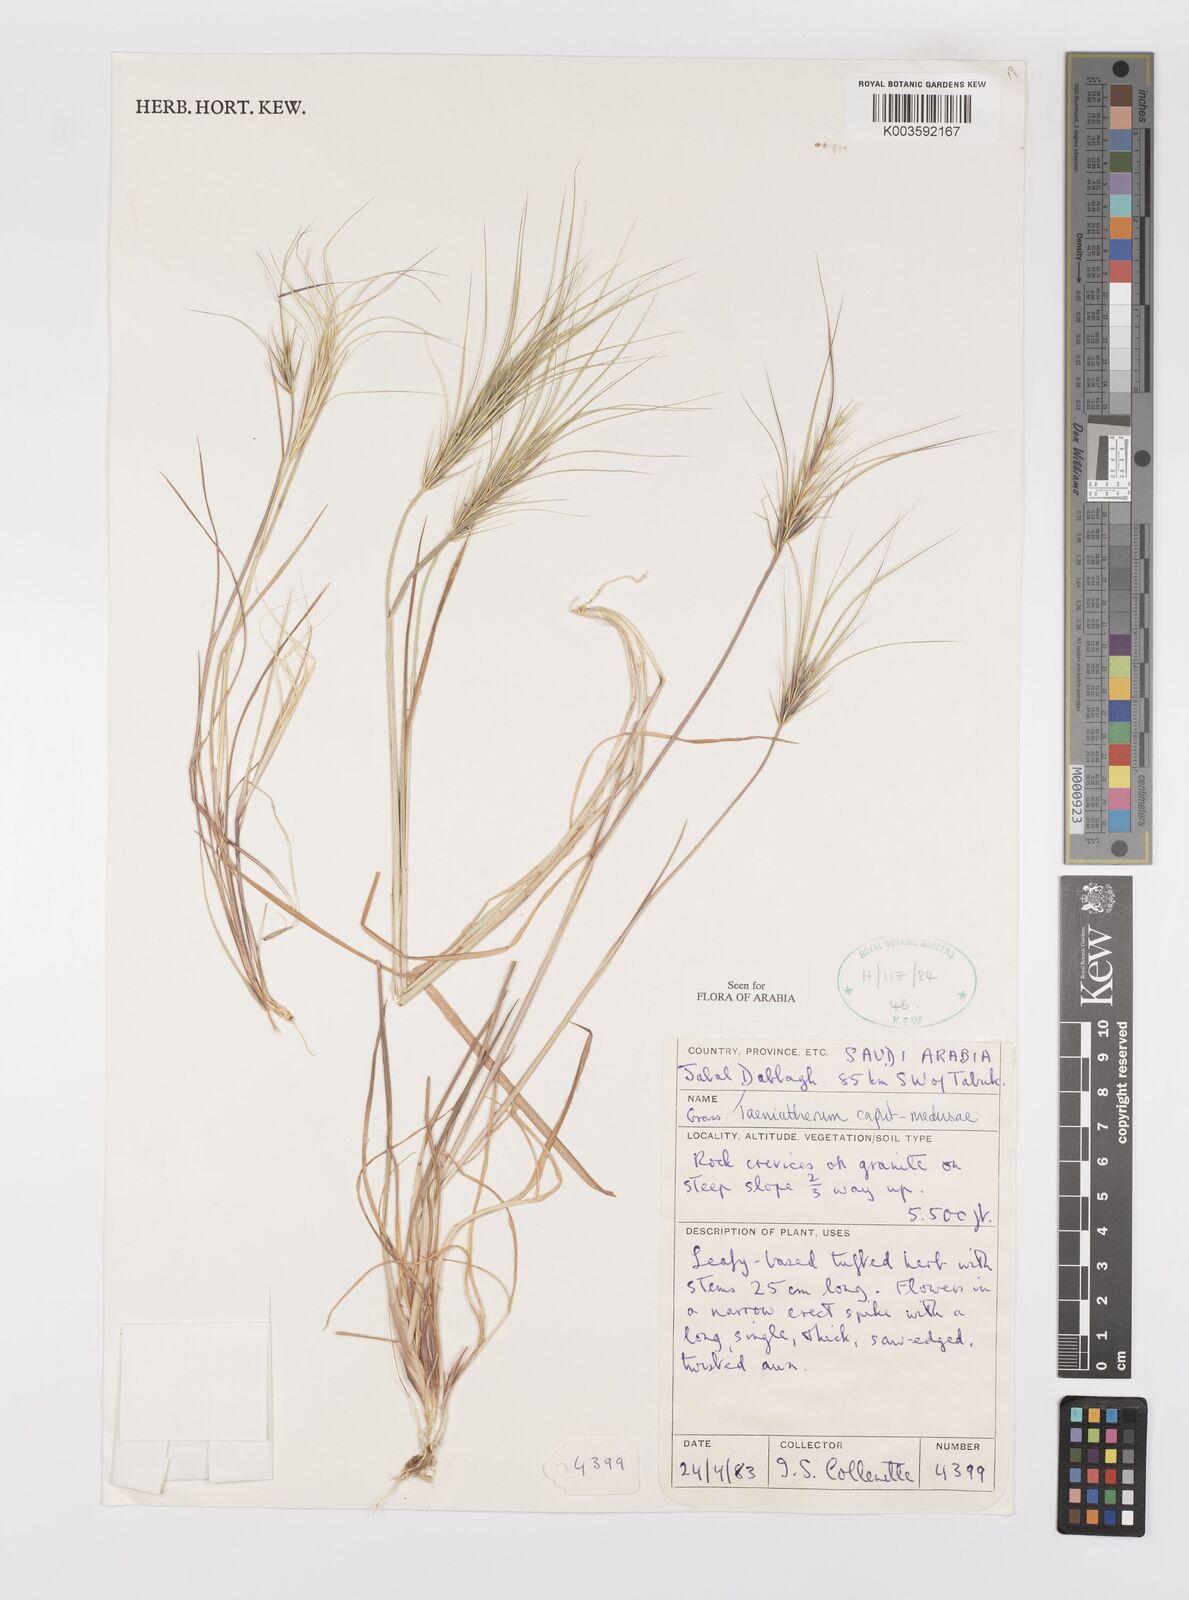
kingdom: Plantae
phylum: Tracheophyta
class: Liliopsida
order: Poales
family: Poaceae
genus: Taeniatherum
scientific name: Taeniatherum caput-medusae
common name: Medusahead
